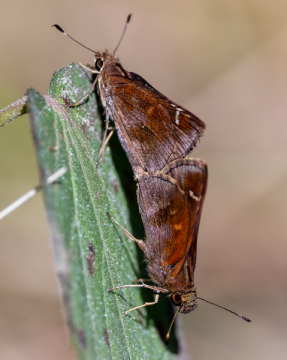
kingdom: Animalia
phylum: Arthropoda
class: Insecta
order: Lepidoptera
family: Hesperiidae
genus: Lerema
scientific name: Lerema accius
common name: Clouded Skipper
